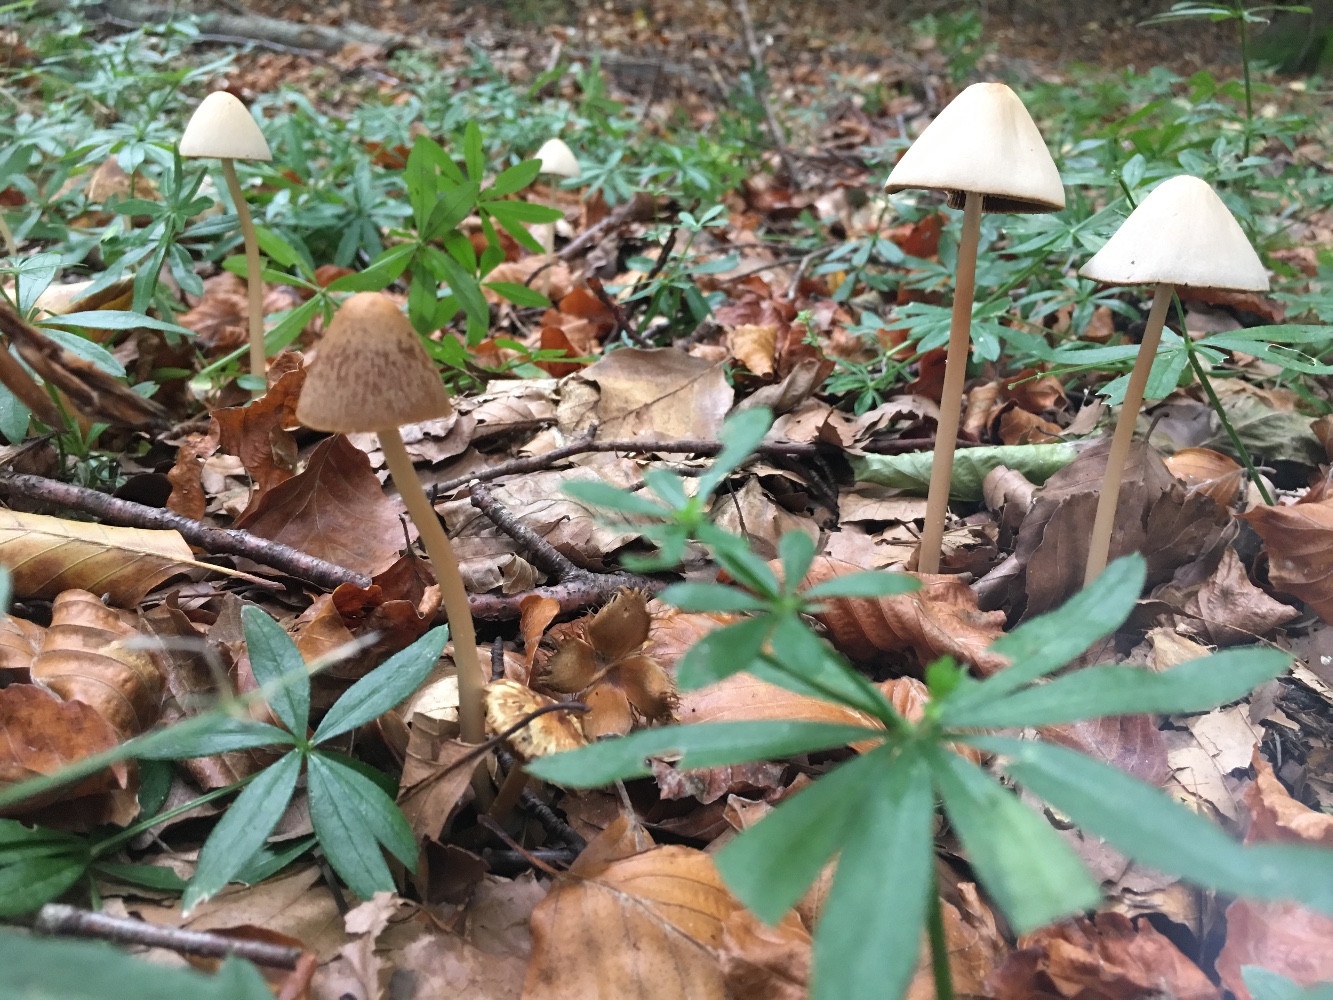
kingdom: Fungi
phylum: Basidiomycota
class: Agaricomycetes
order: Agaricales
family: Psathyrellaceae
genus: Parasola
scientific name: Parasola conopilea
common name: kegle-hjulhat
